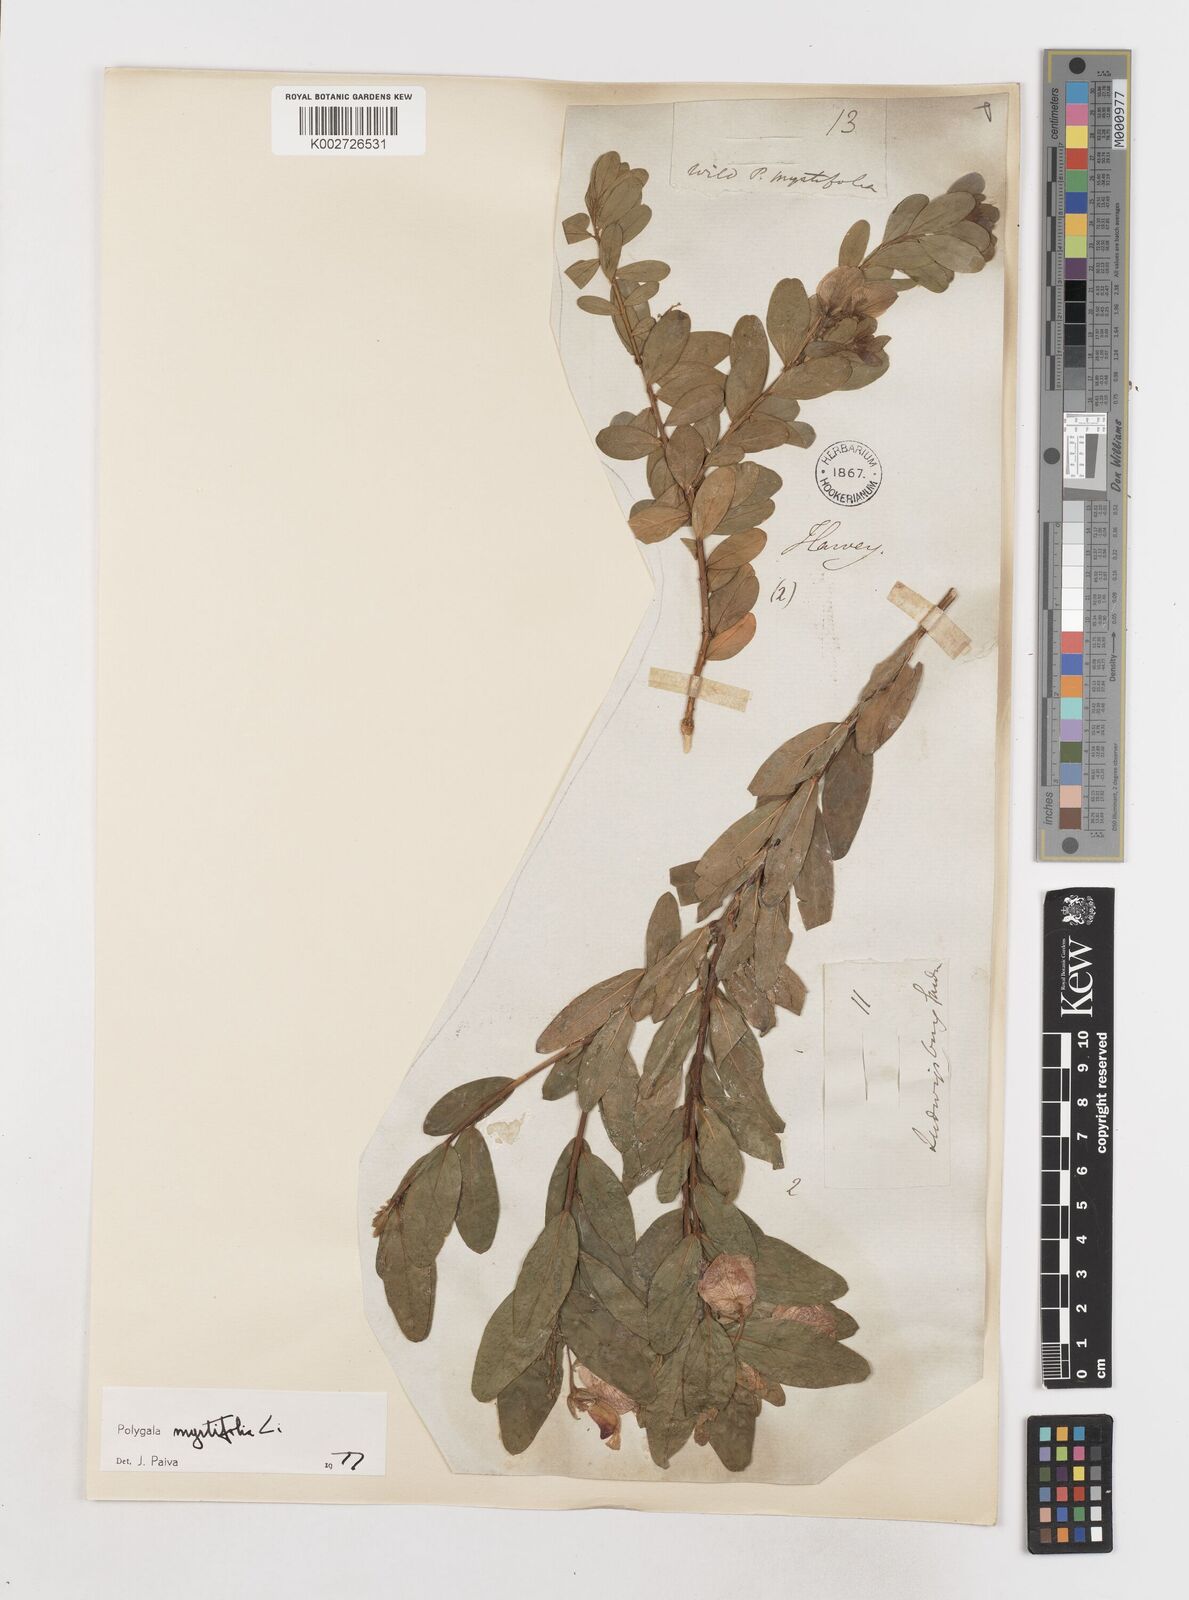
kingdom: Plantae
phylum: Tracheophyta
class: Magnoliopsida
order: Fabales
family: Polygalaceae
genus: Polygala
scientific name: Polygala myrtifolia
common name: Myrtle-leaf milkwort
